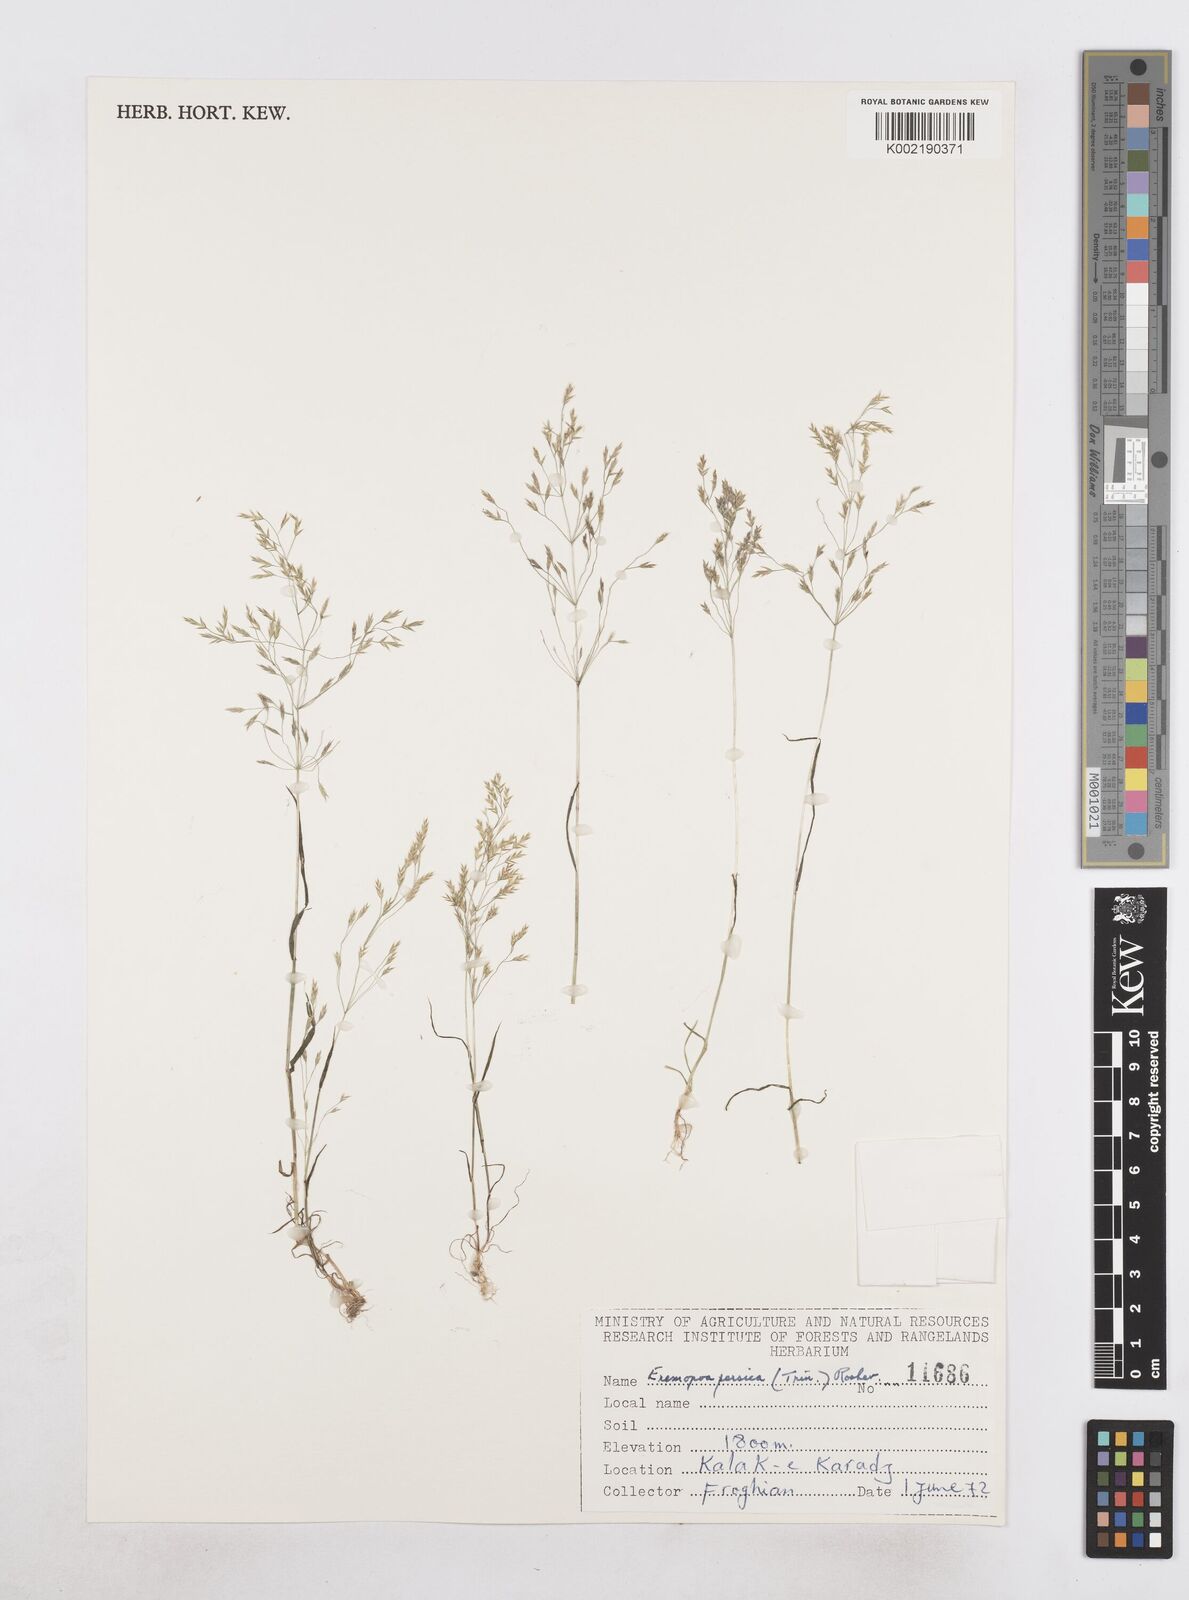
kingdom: Plantae
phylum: Tracheophyta
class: Liliopsida
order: Poales
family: Poaceae
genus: Poa
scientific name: Poa persica
